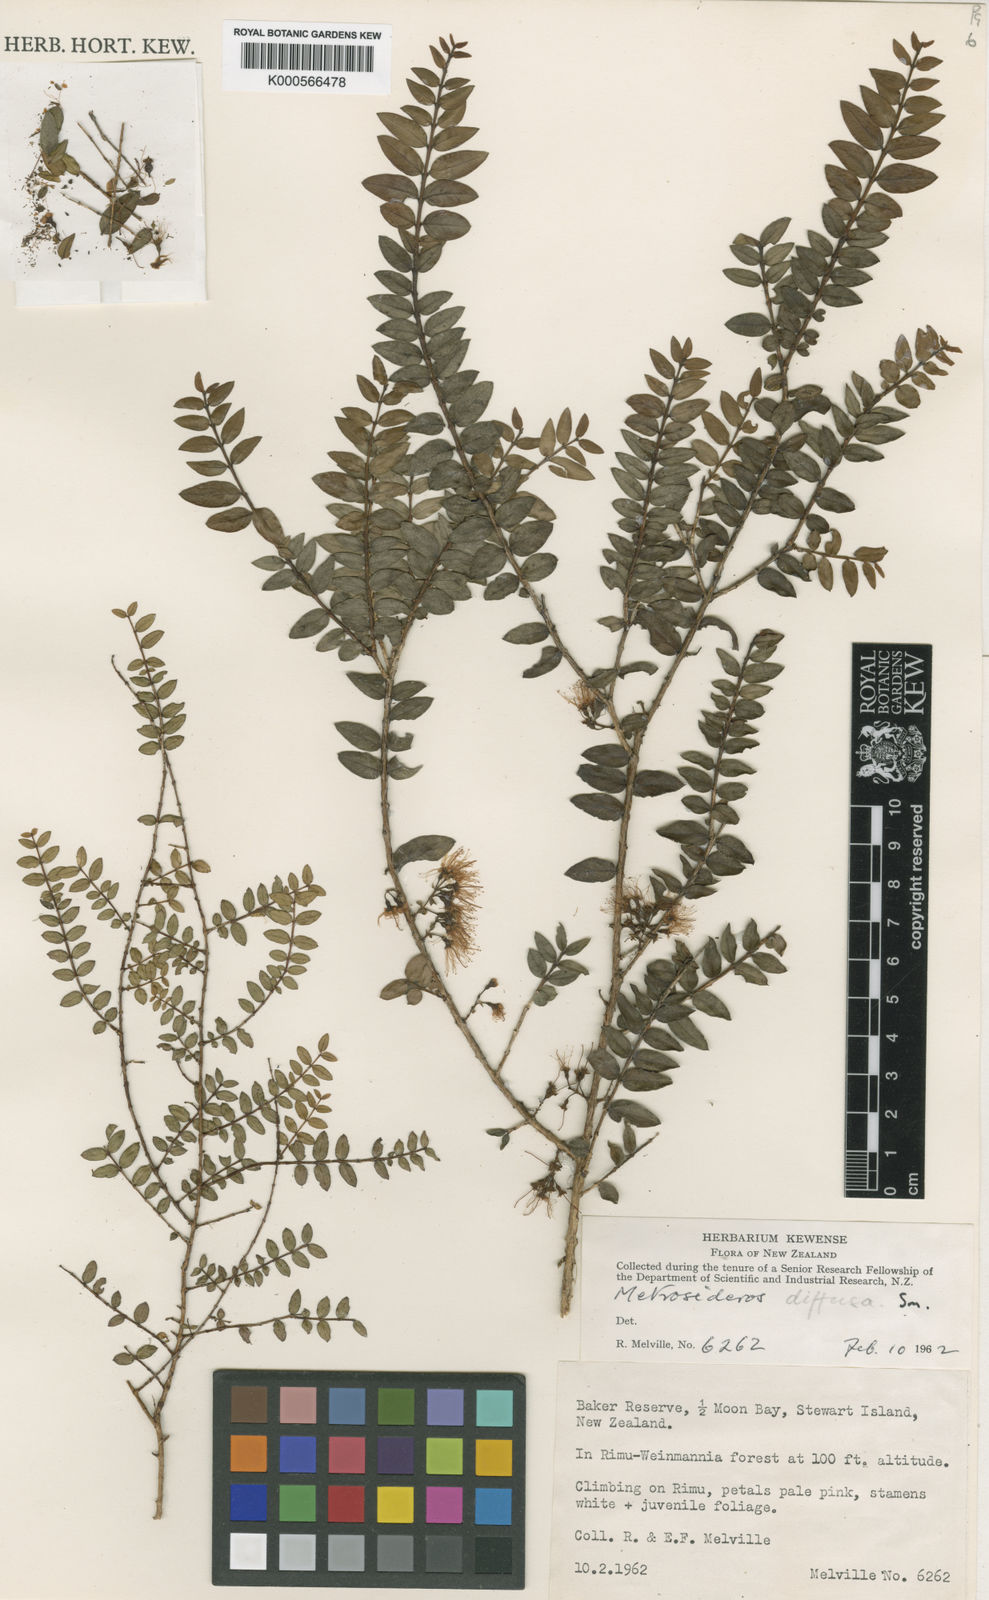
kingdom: Plantae
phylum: Tracheophyta
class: Magnoliopsida
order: Myrtales
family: Myrtaceae
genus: Metrosideros
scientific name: Metrosideros diffusa
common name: Small ratavine
